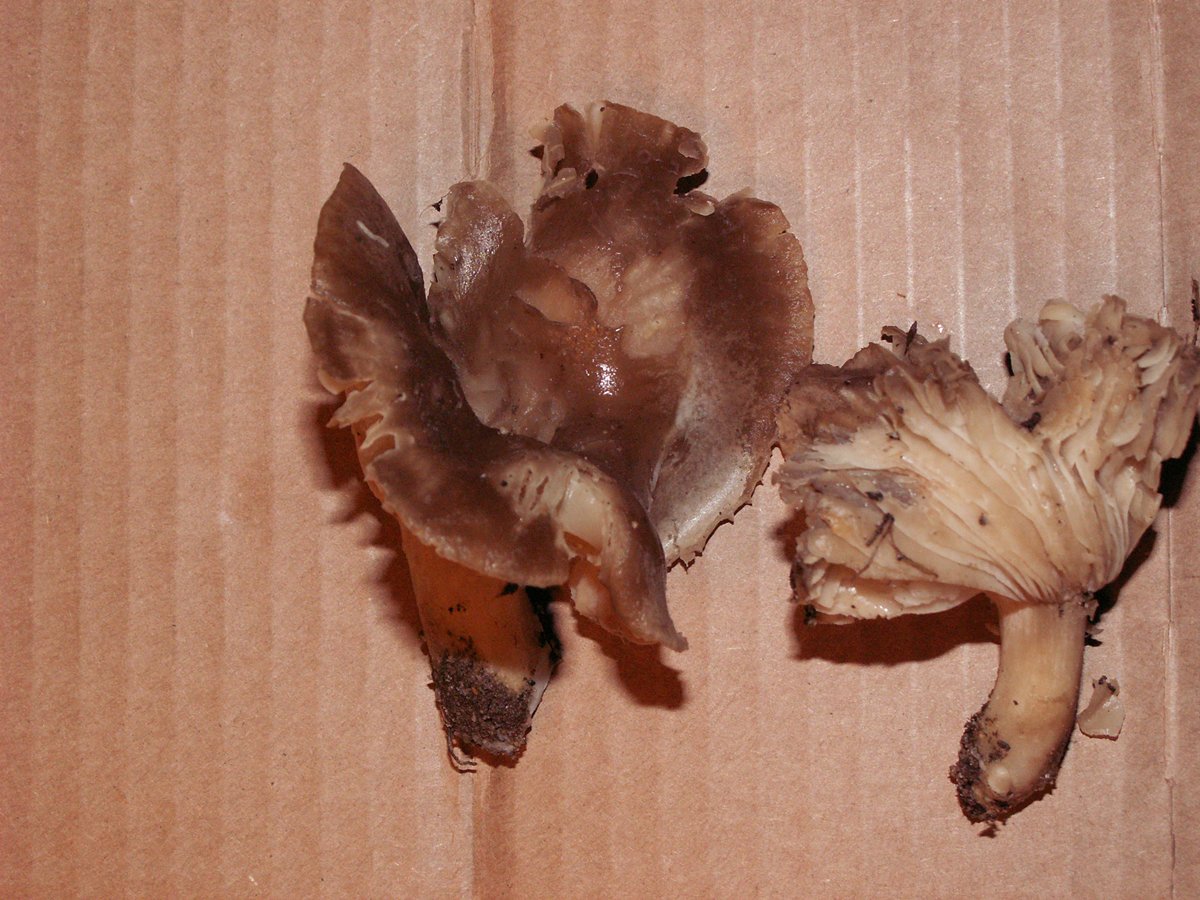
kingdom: Fungi
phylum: Basidiomycota
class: Agaricomycetes
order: Agaricales
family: Hygrophoraceae
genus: Hygrophorus
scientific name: Hygrophorus camarophyllus
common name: sodbrun sneglehat
